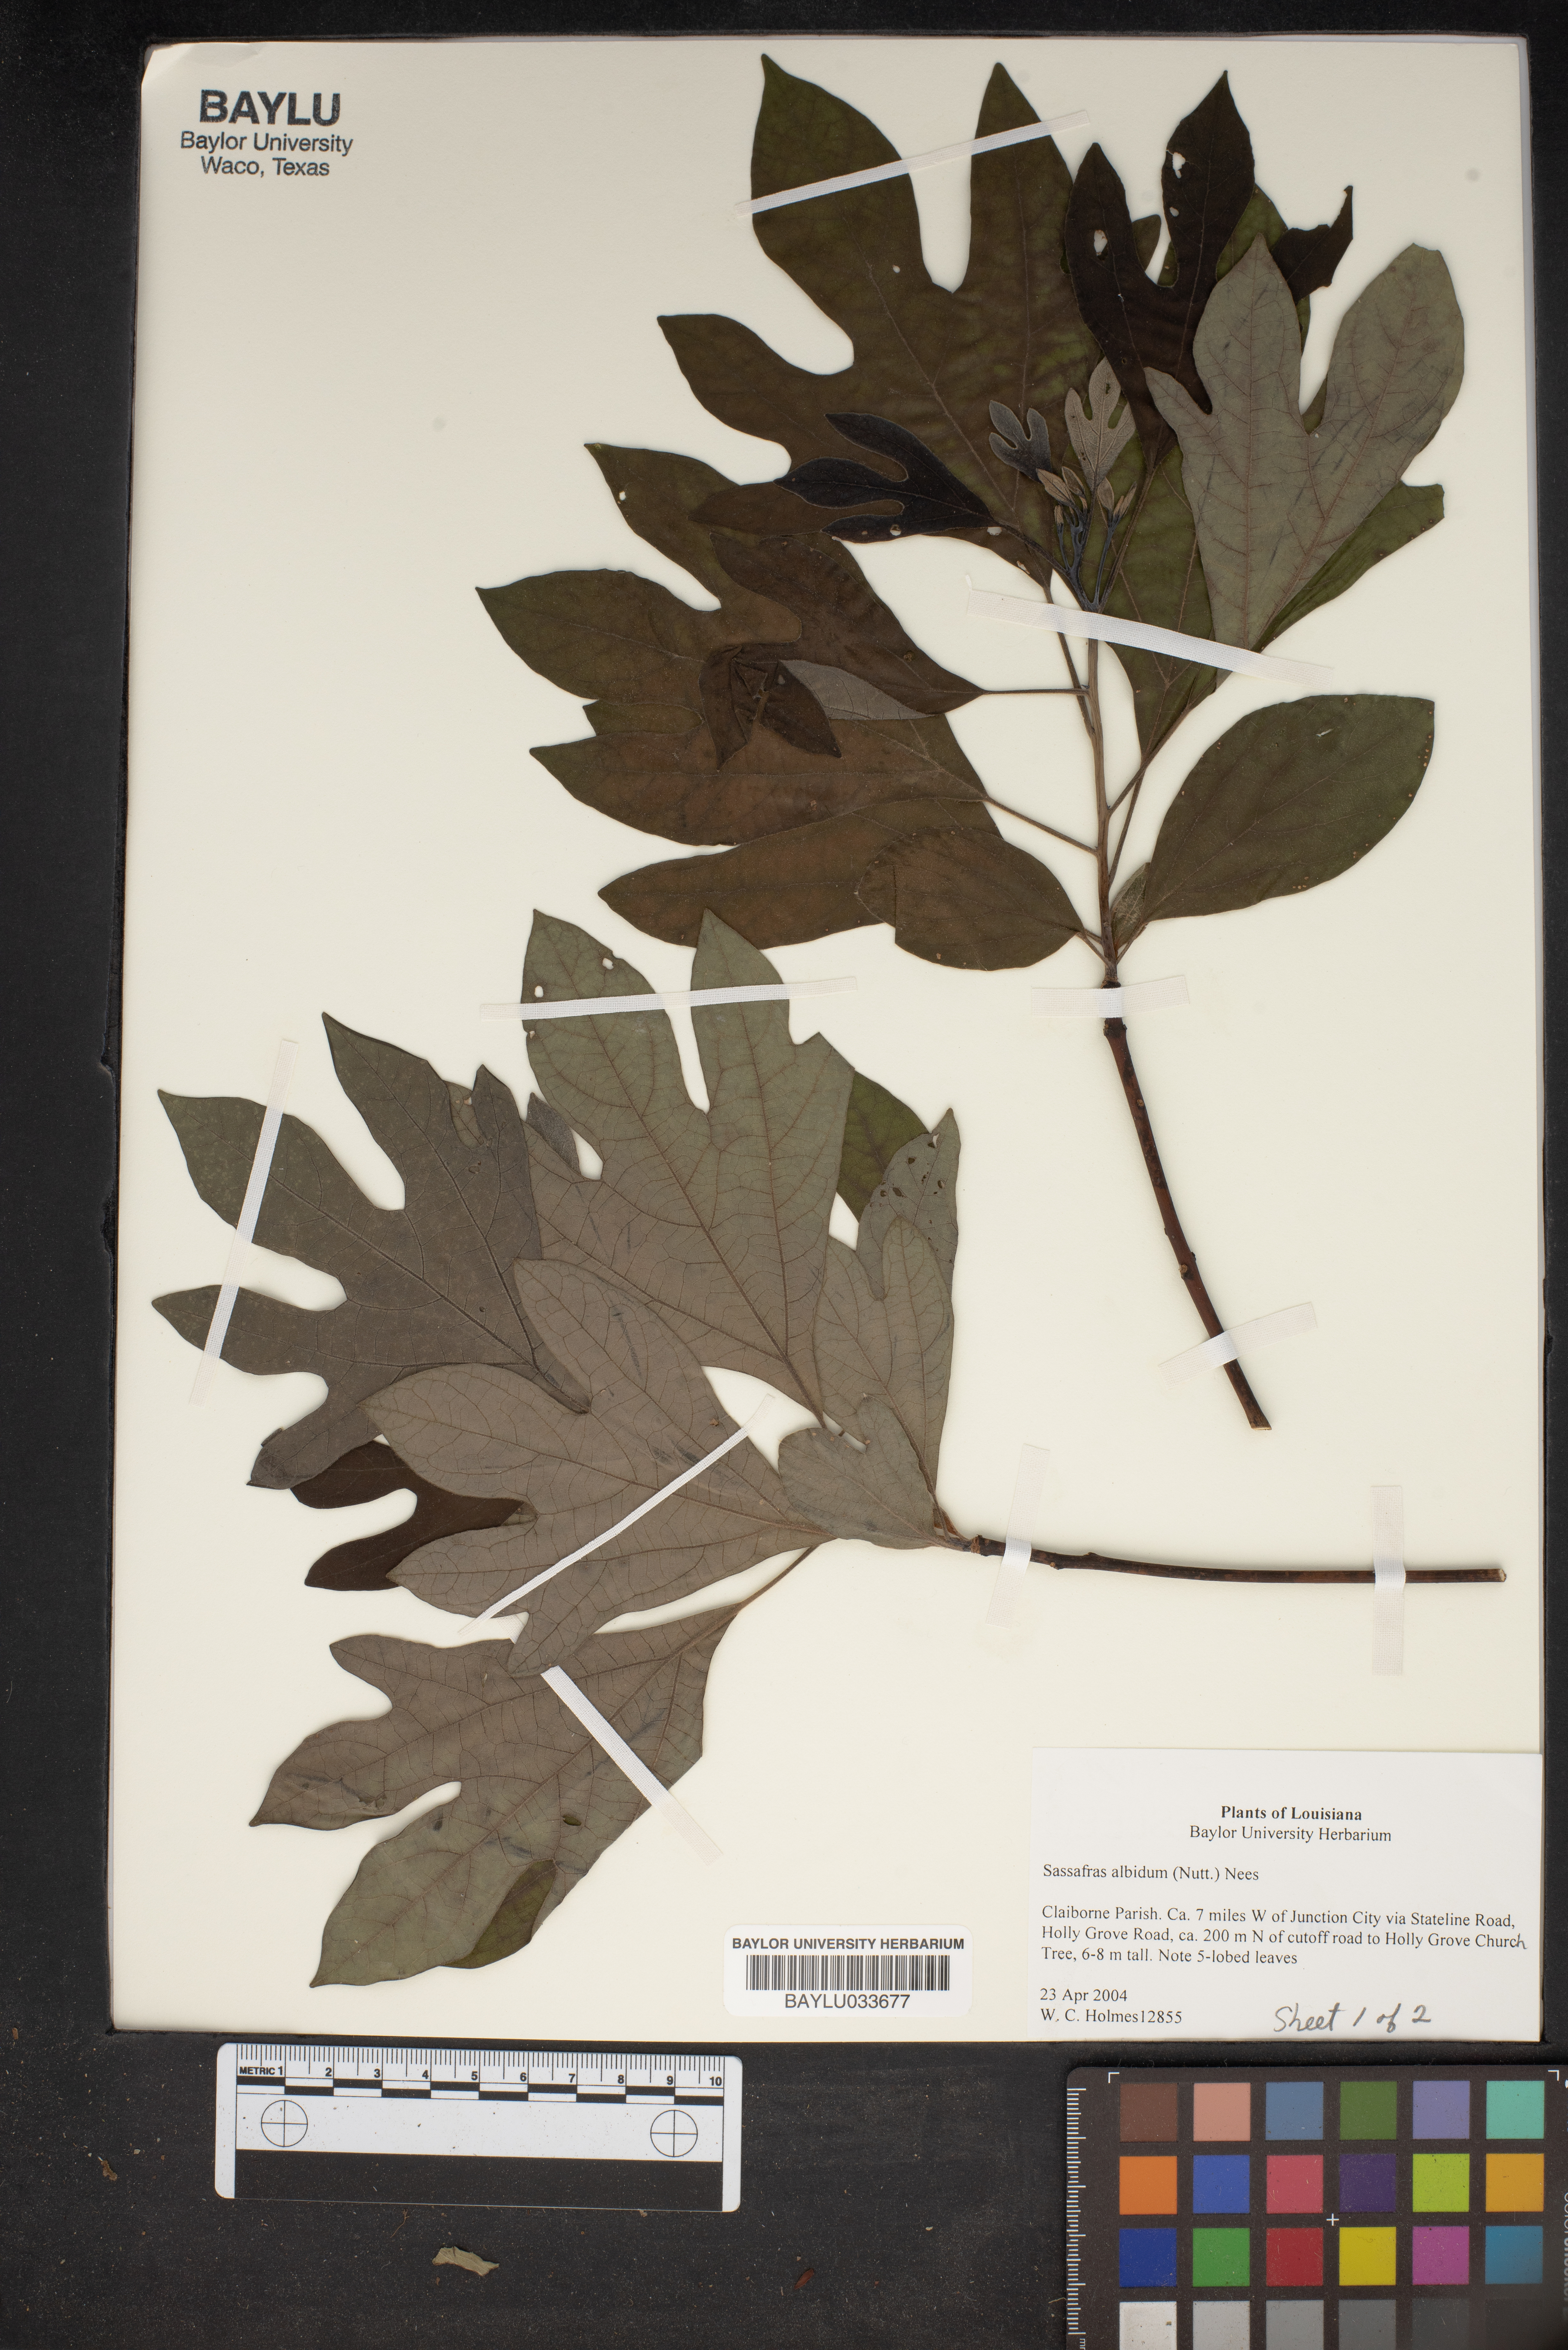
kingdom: Plantae
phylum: Tracheophyta
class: Magnoliopsida
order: Laurales
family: Lauraceae
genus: Sassafras
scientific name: Sassafras albidum
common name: Sassafras
